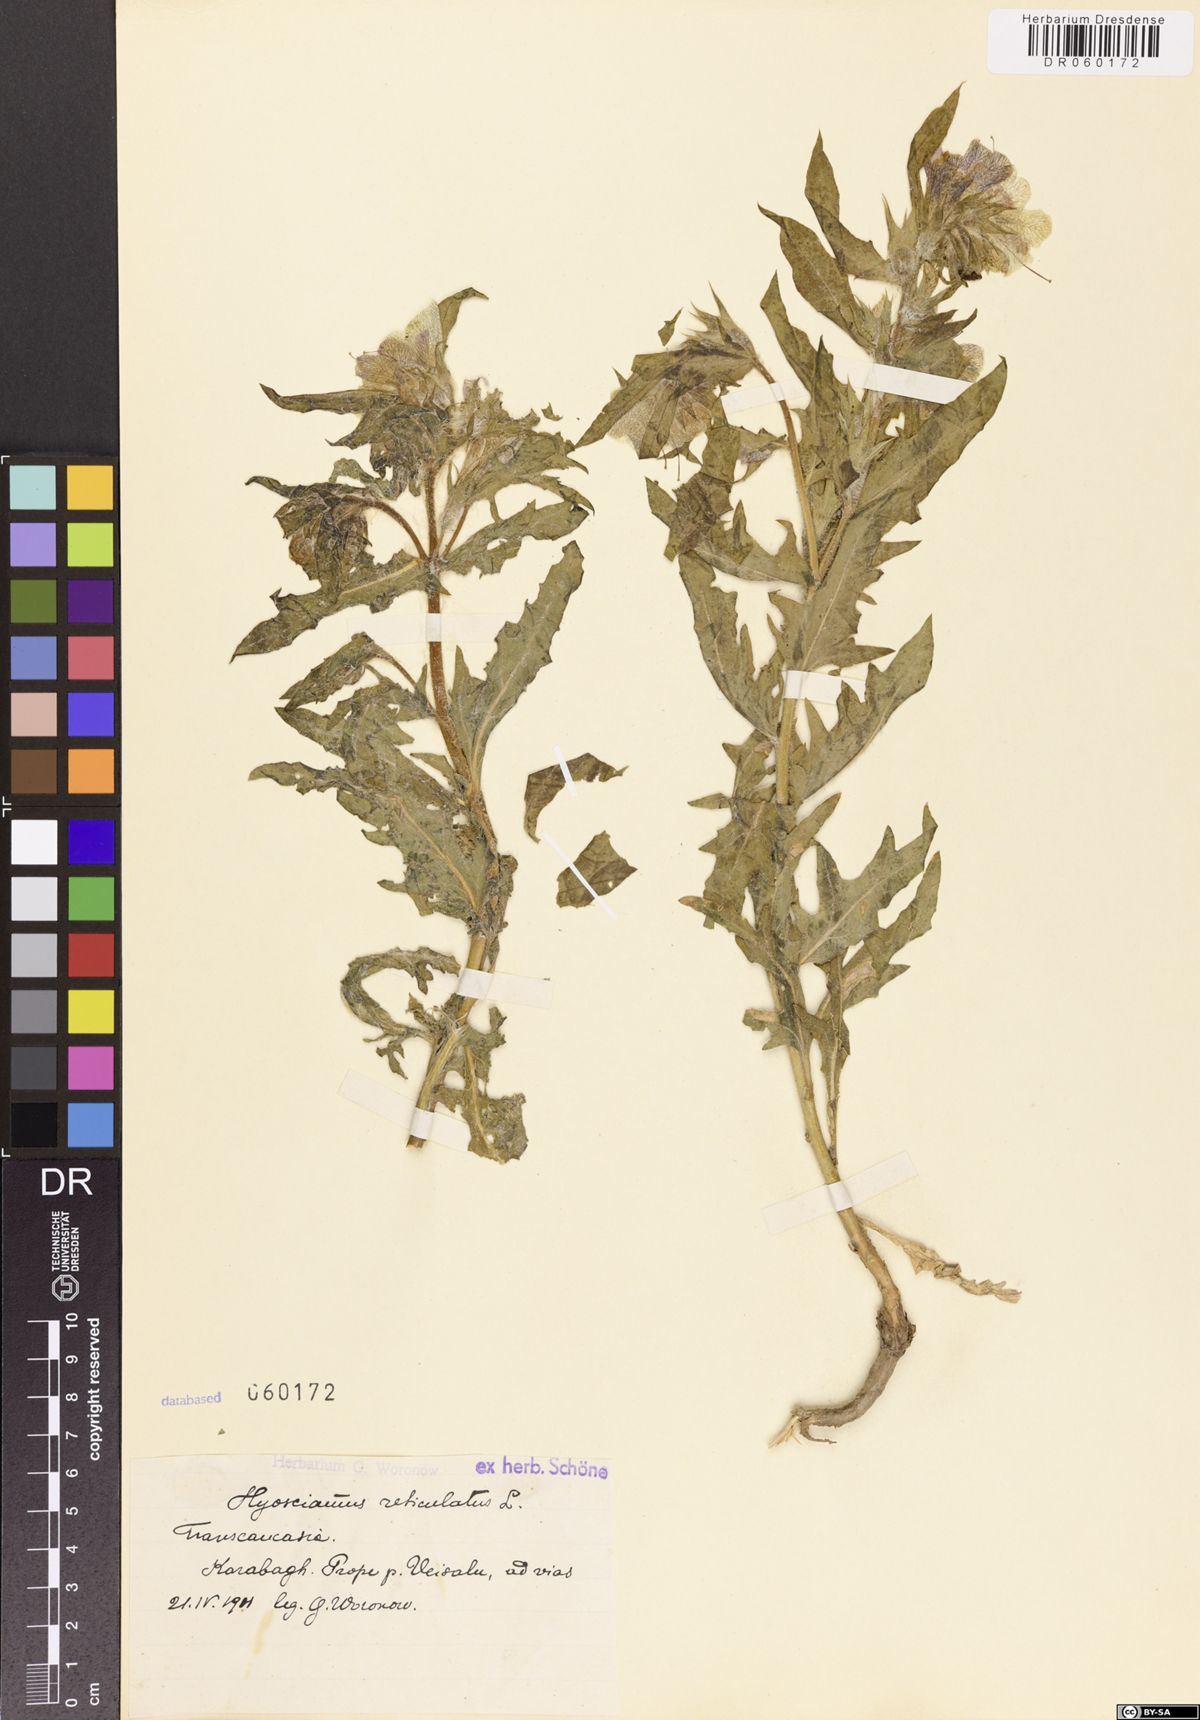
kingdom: Plantae
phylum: Tracheophyta
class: Magnoliopsida
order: Solanales
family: Solanaceae
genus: Hyoscyamus
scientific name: Hyoscyamus reticulatus
